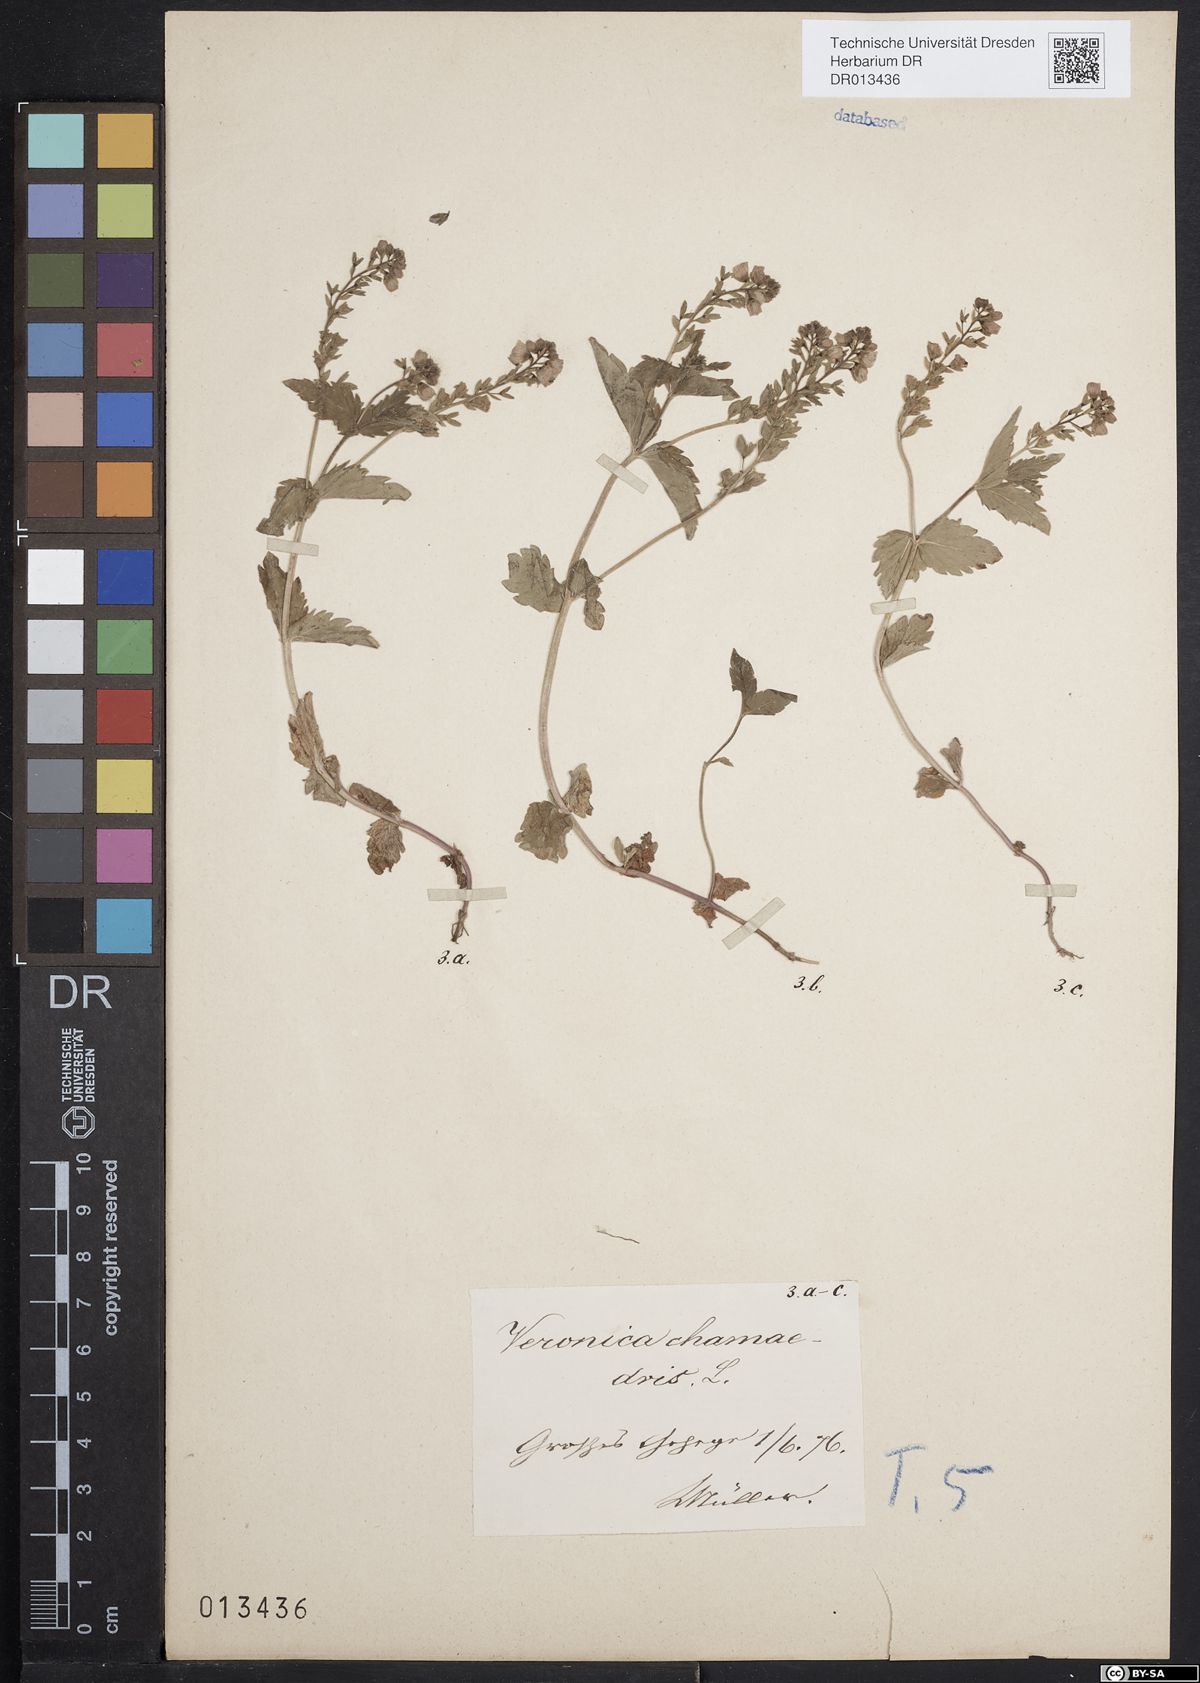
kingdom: Plantae
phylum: Tracheophyta
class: Magnoliopsida
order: Lamiales
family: Plantaginaceae
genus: Veronica
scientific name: Veronica chamaedrys
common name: Germander speedwell
